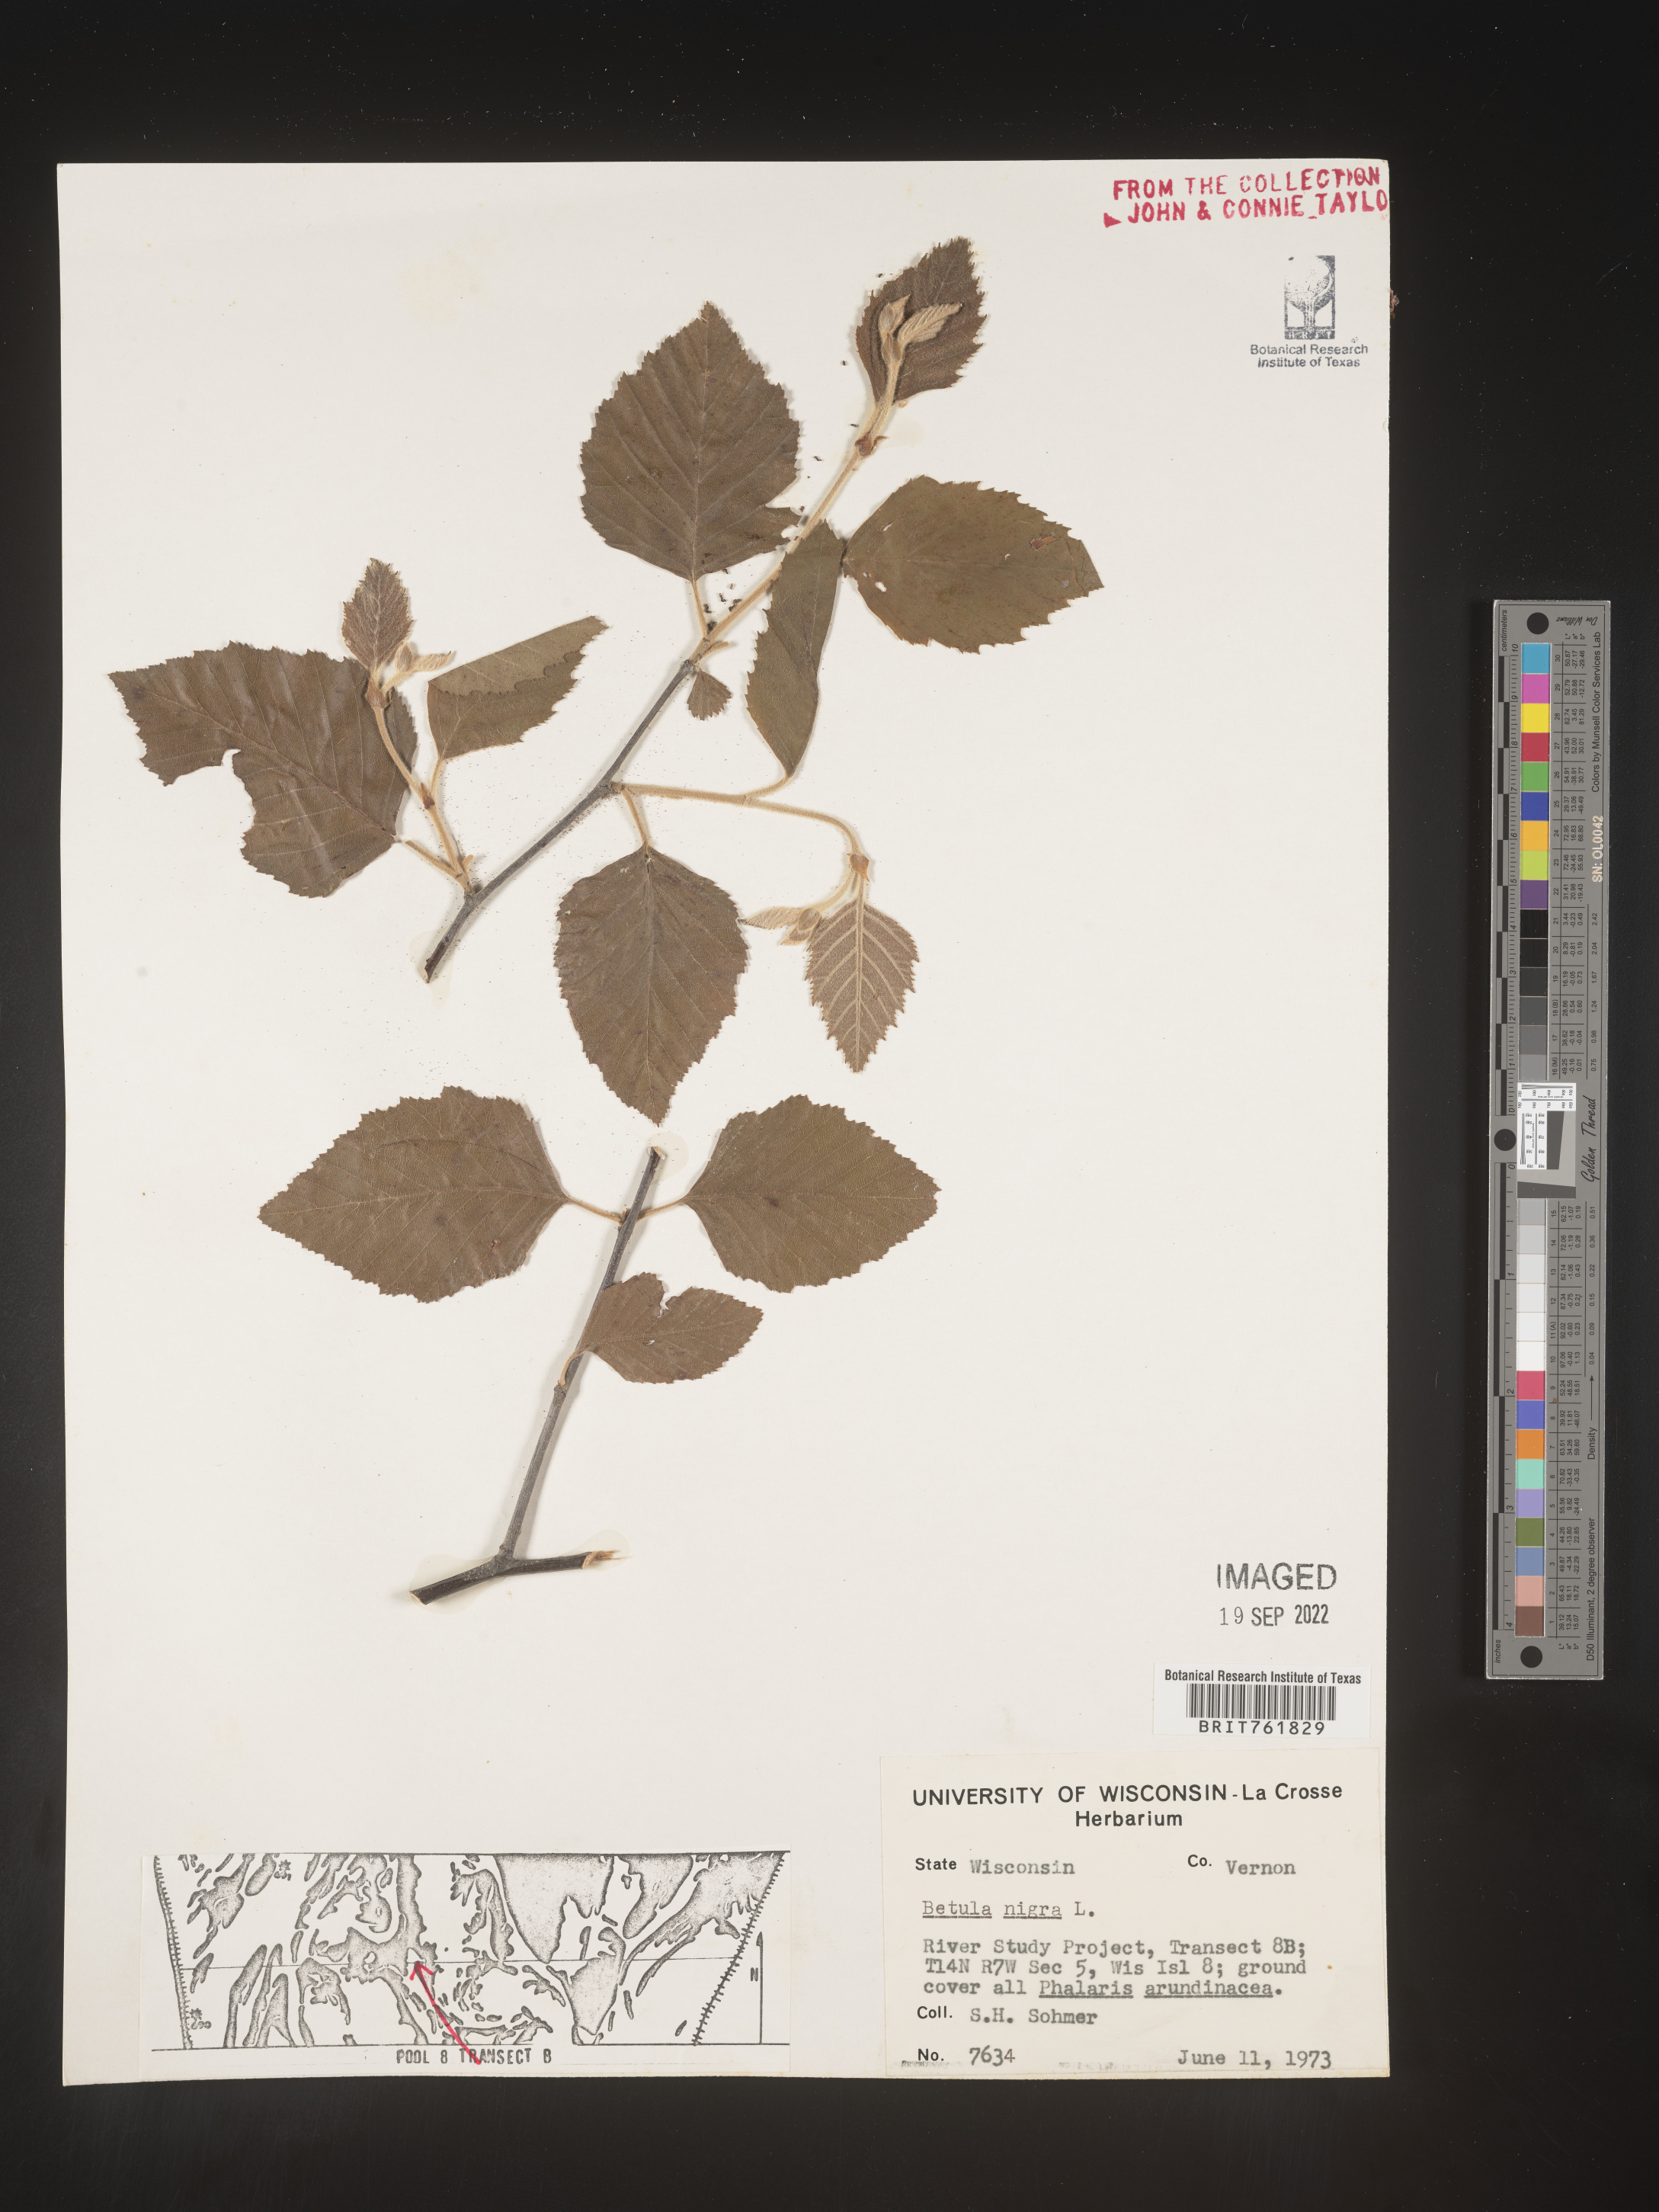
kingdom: Plantae
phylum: Tracheophyta
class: Magnoliopsida
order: Fagales
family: Betulaceae
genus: Betula
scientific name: Betula nigra
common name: Black birch
